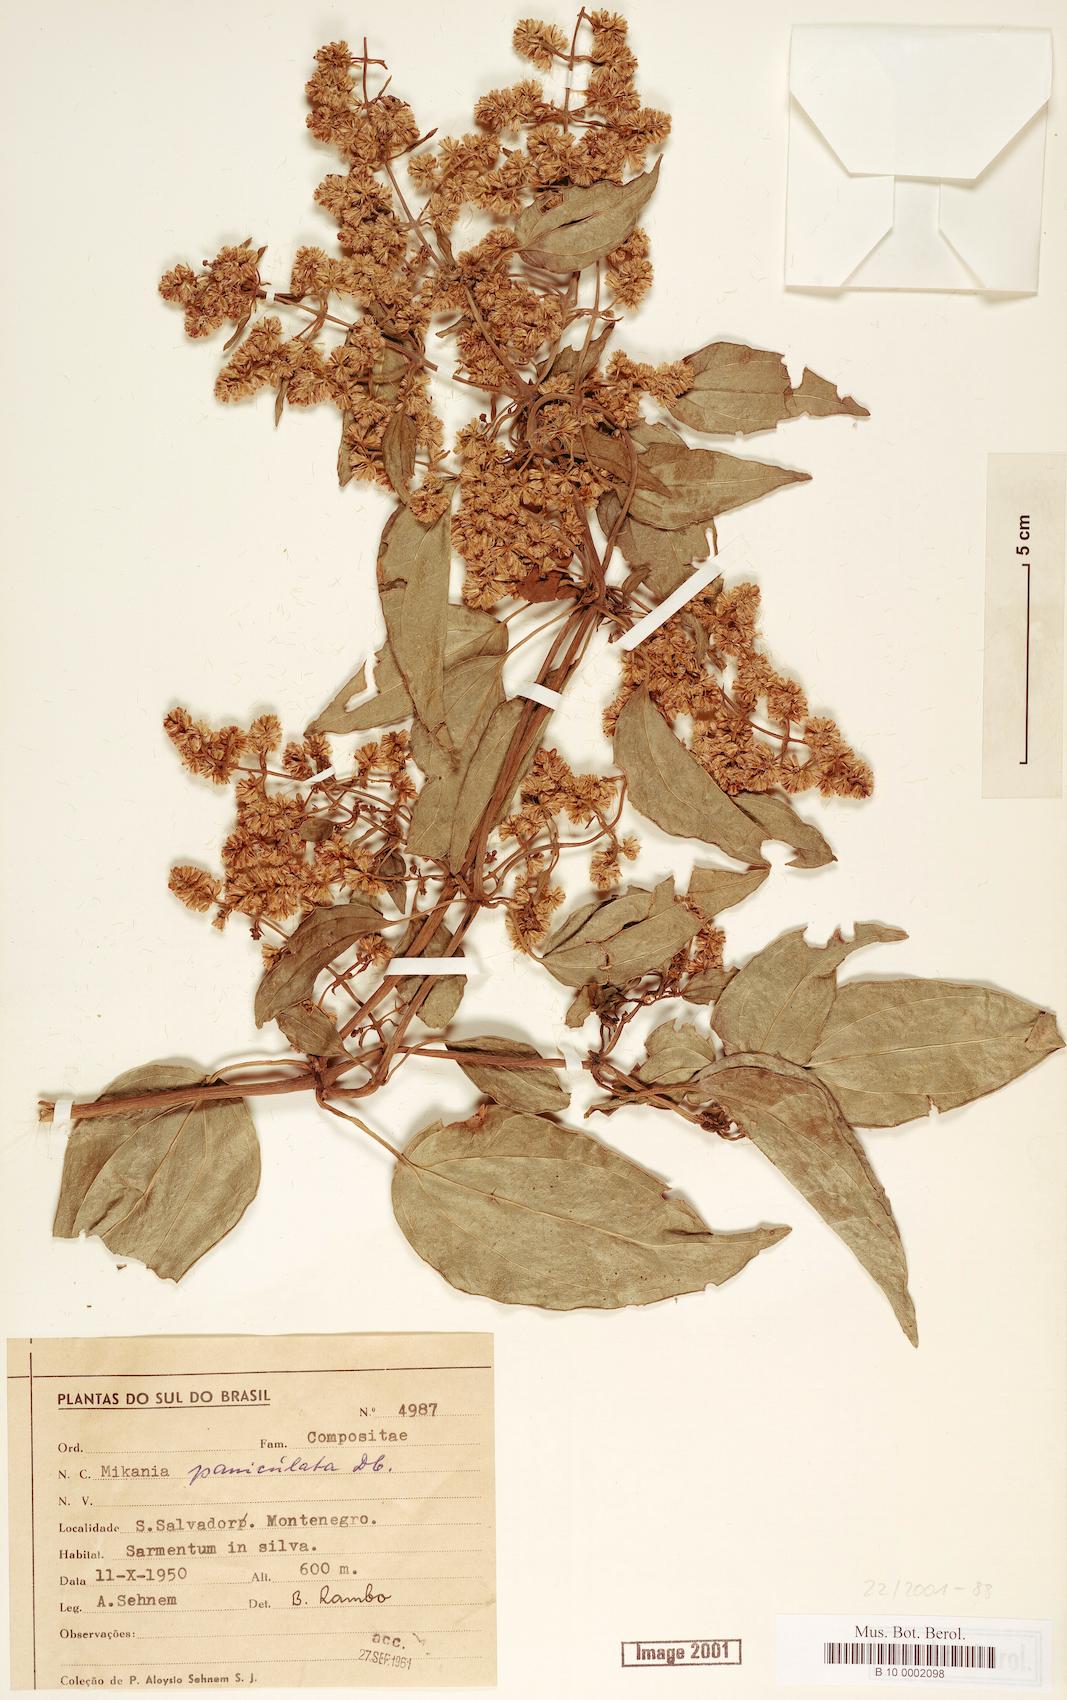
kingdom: Plantae
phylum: Tracheophyta
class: Magnoliopsida
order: Asterales
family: Asteraceae
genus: Mikania
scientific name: Mikania paniculata
